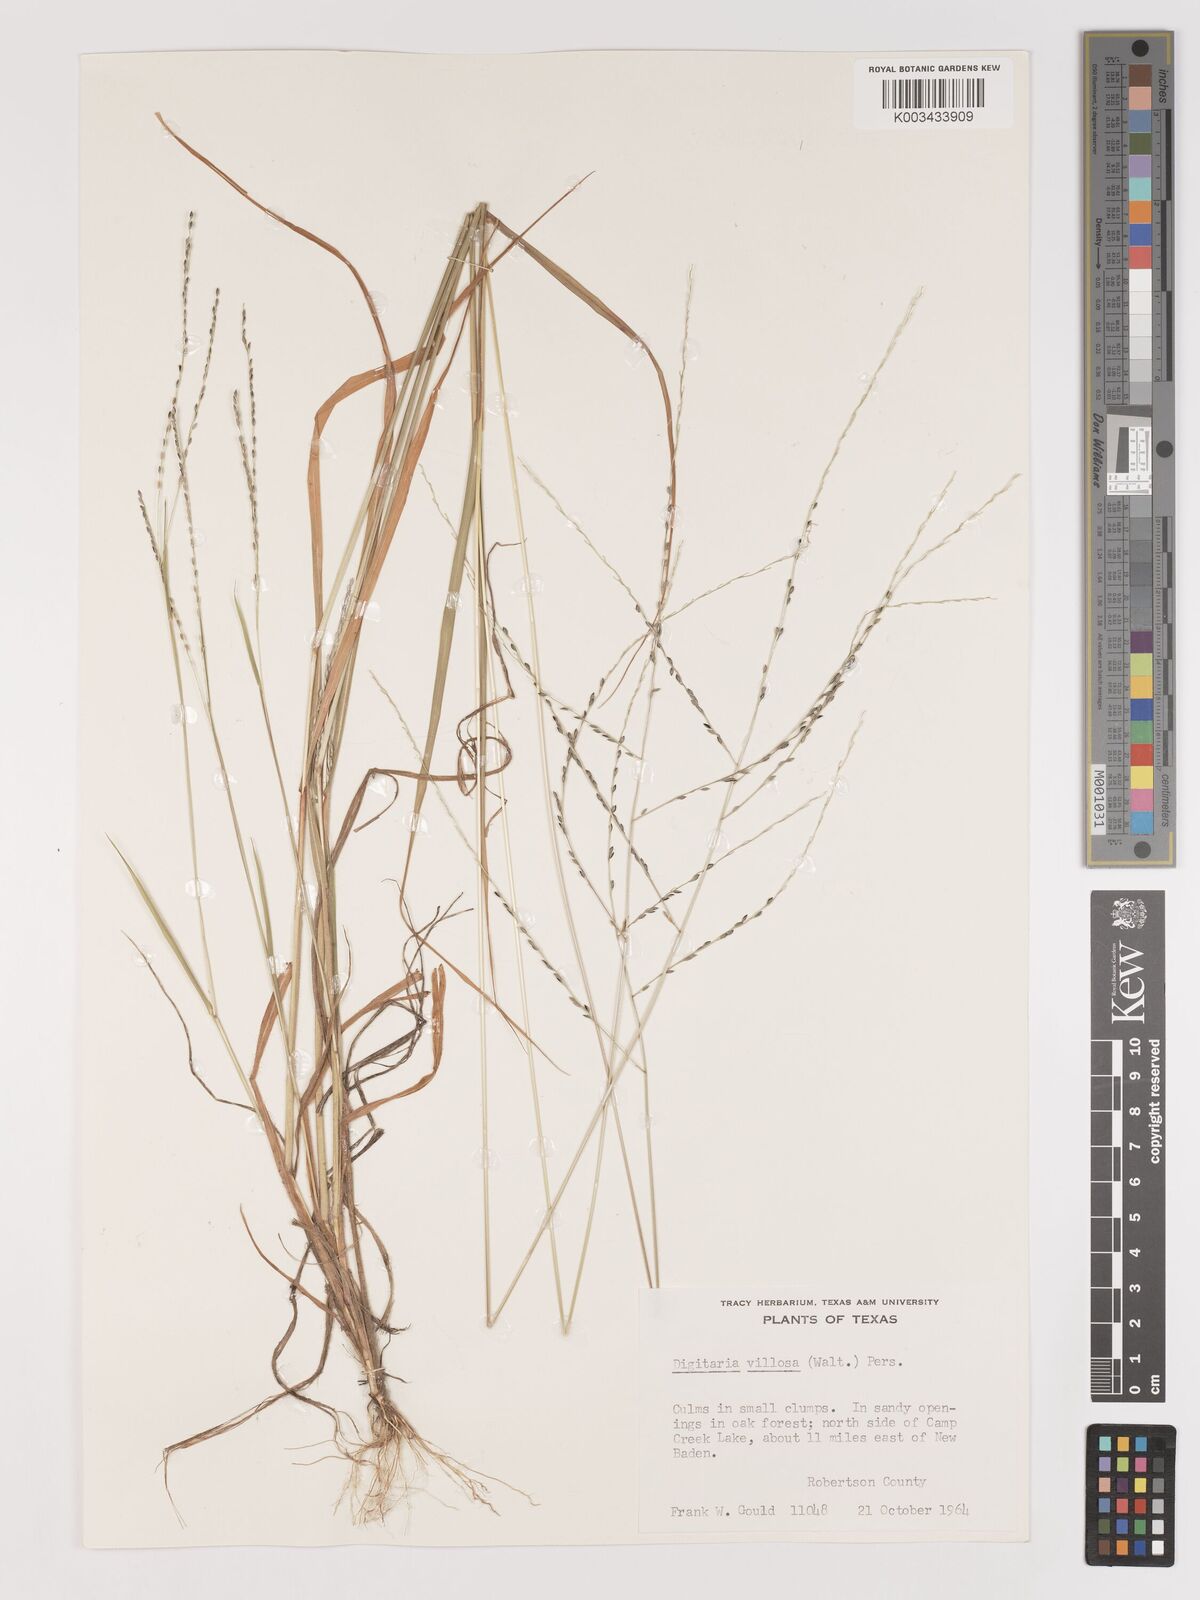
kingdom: Plantae
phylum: Tracheophyta
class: Liliopsida
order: Poales
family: Poaceae
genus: Digitaria
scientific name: Digitaria villosa
